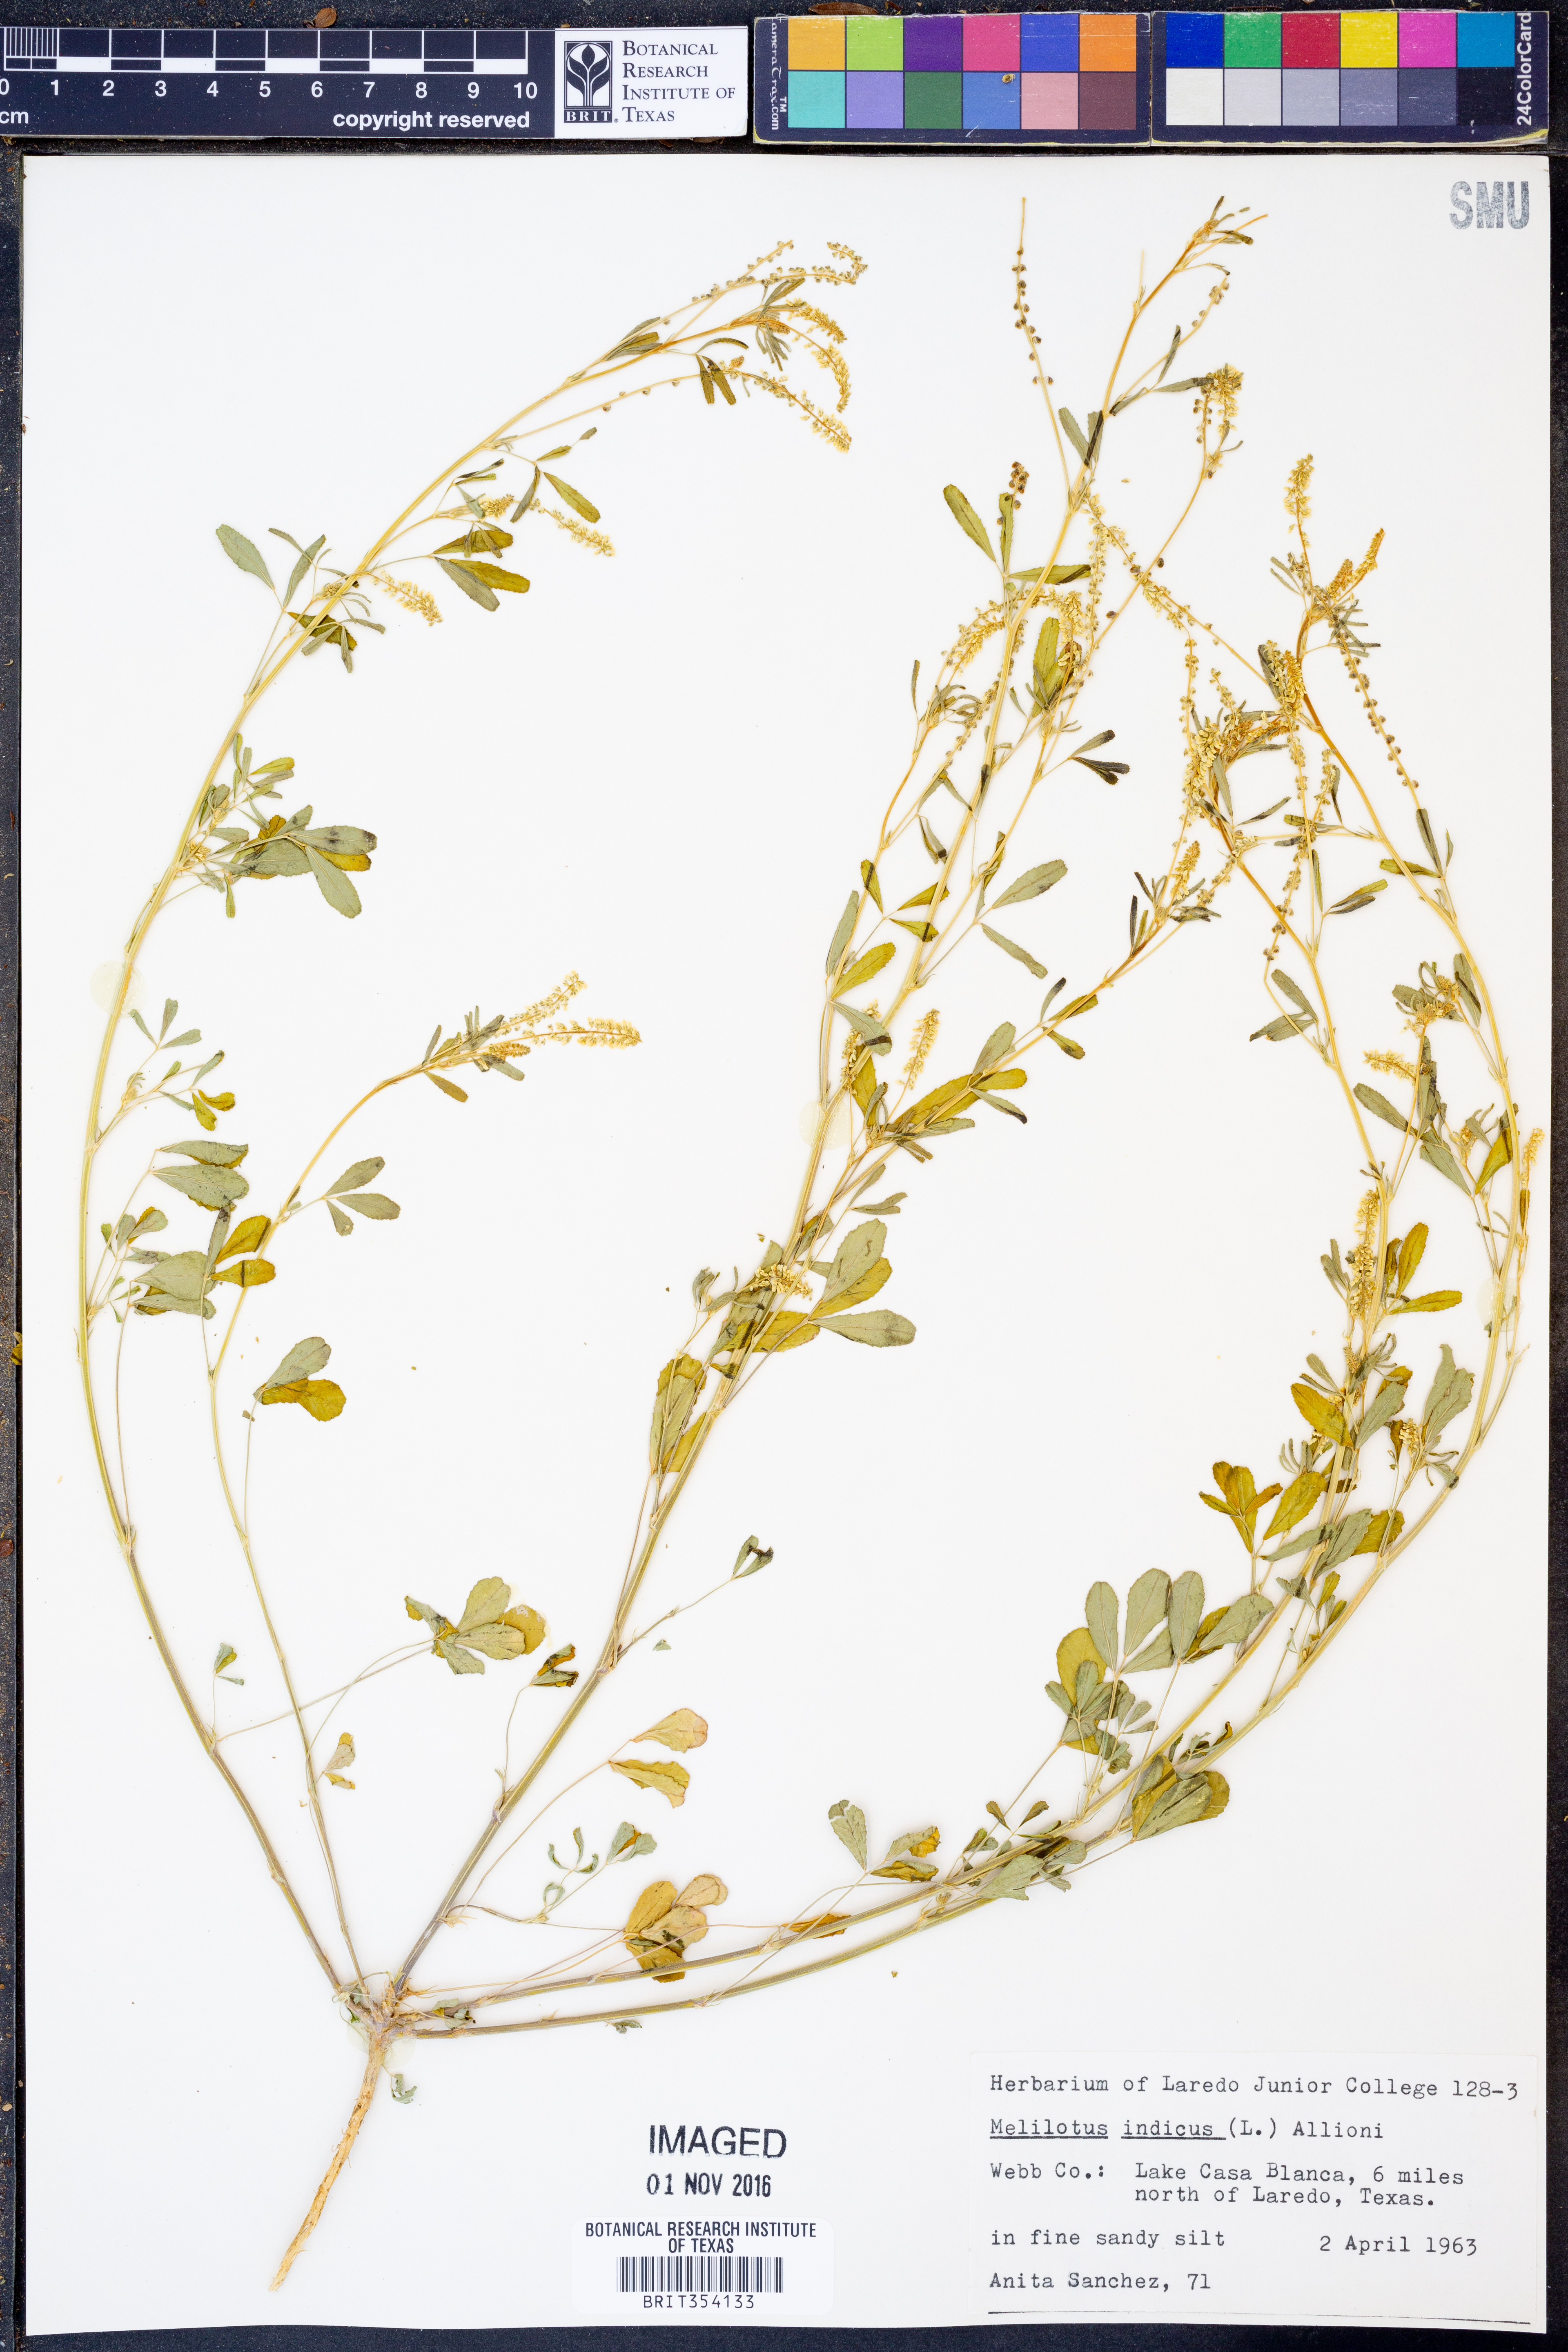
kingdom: Plantae
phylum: Tracheophyta
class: Magnoliopsida
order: Fabales
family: Fabaceae
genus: Melilotus
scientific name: Melilotus indicus
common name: Small melilot
